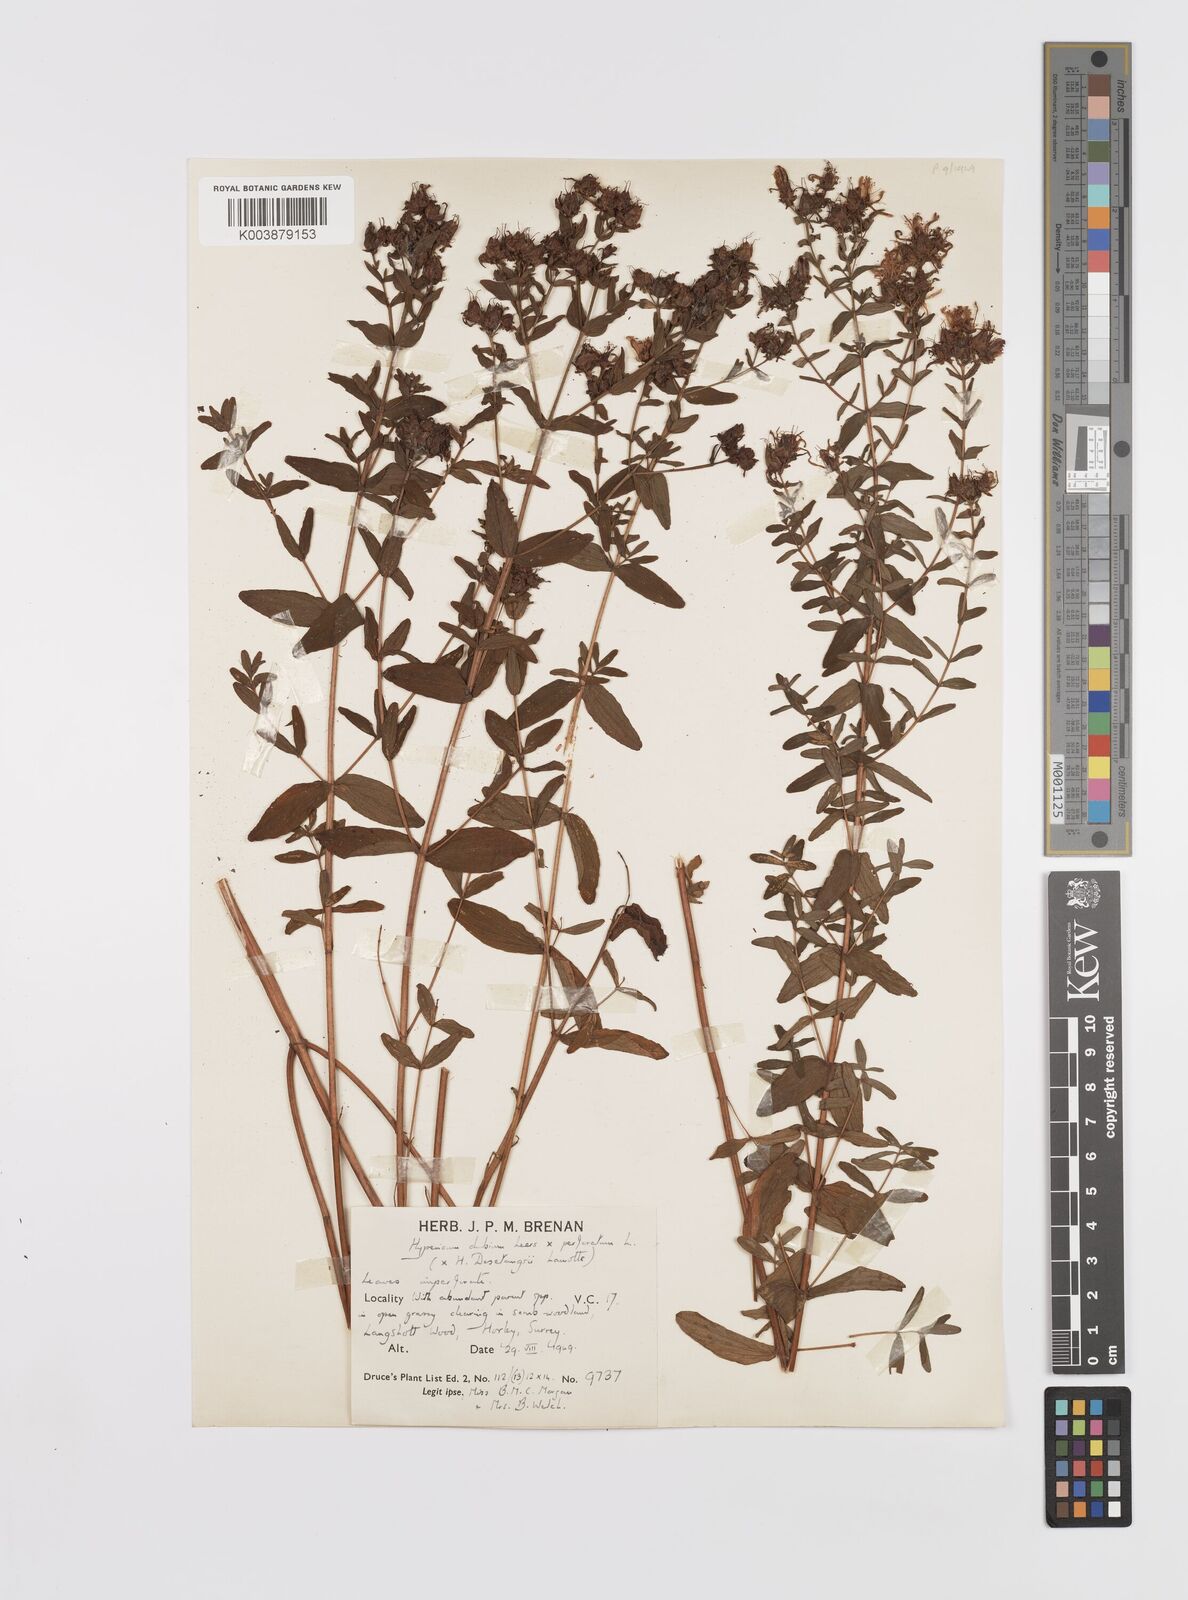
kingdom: Plantae
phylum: Tracheophyta
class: Magnoliopsida
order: Malpighiales
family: Hypericaceae
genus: Hypericum
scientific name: Hypericum desetangsii
